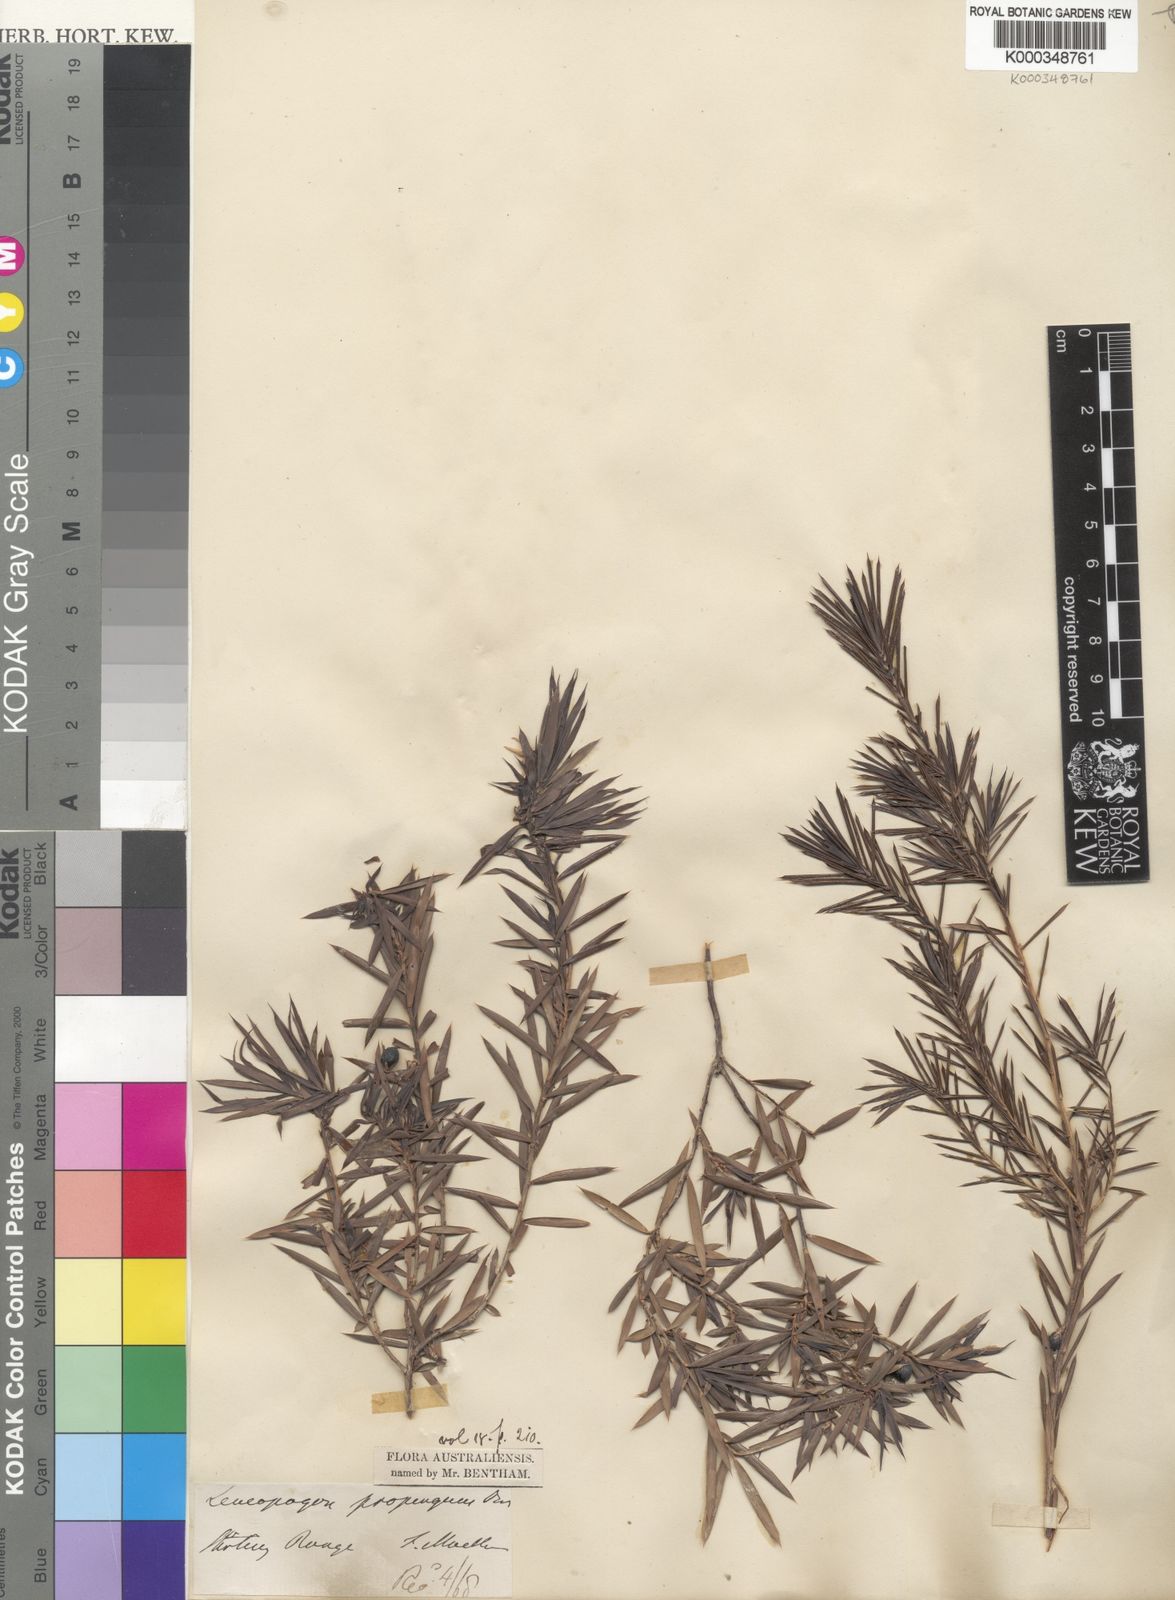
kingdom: Plantae
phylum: Tracheophyta
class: Magnoliopsida
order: Ericales
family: Ericaceae
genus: Styphelia
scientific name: Styphelia propinqua
